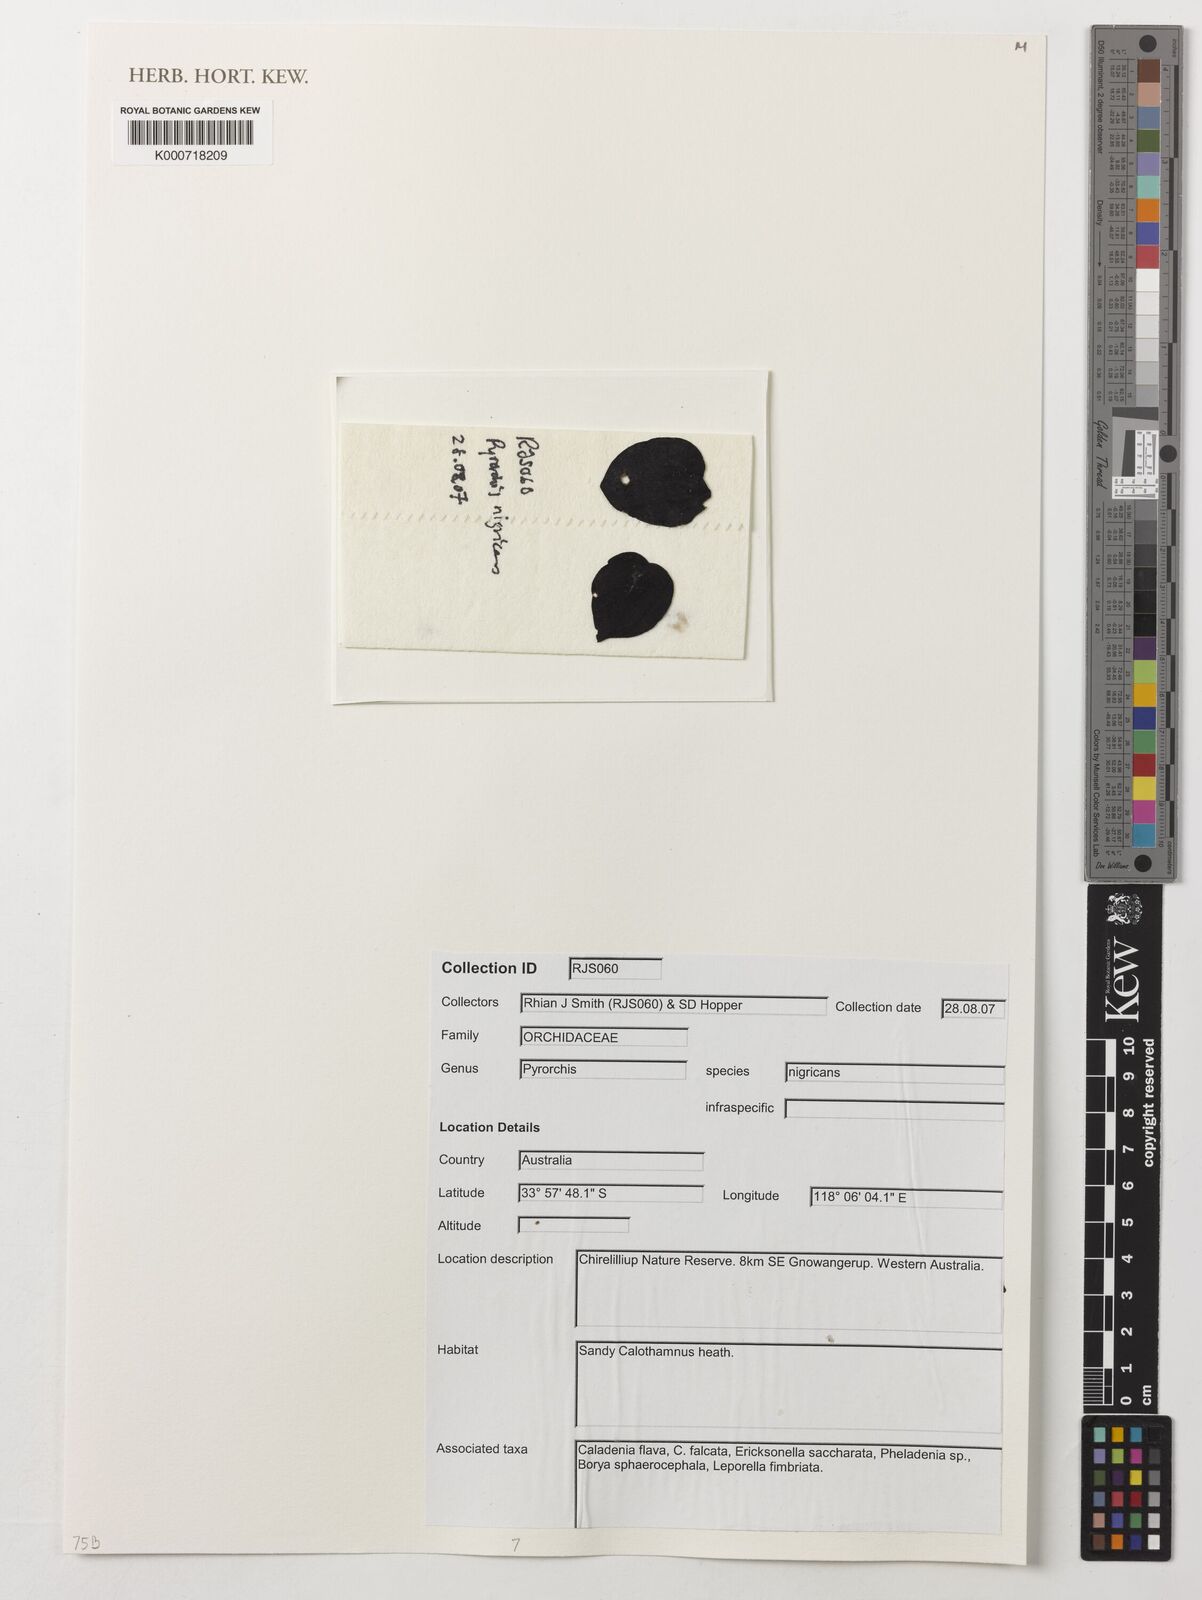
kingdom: Plantae
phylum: Tracheophyta
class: Liliopsida
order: Asparagales
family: Orchidaceae
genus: Pyrorchis
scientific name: Pyrorchis nigricans
